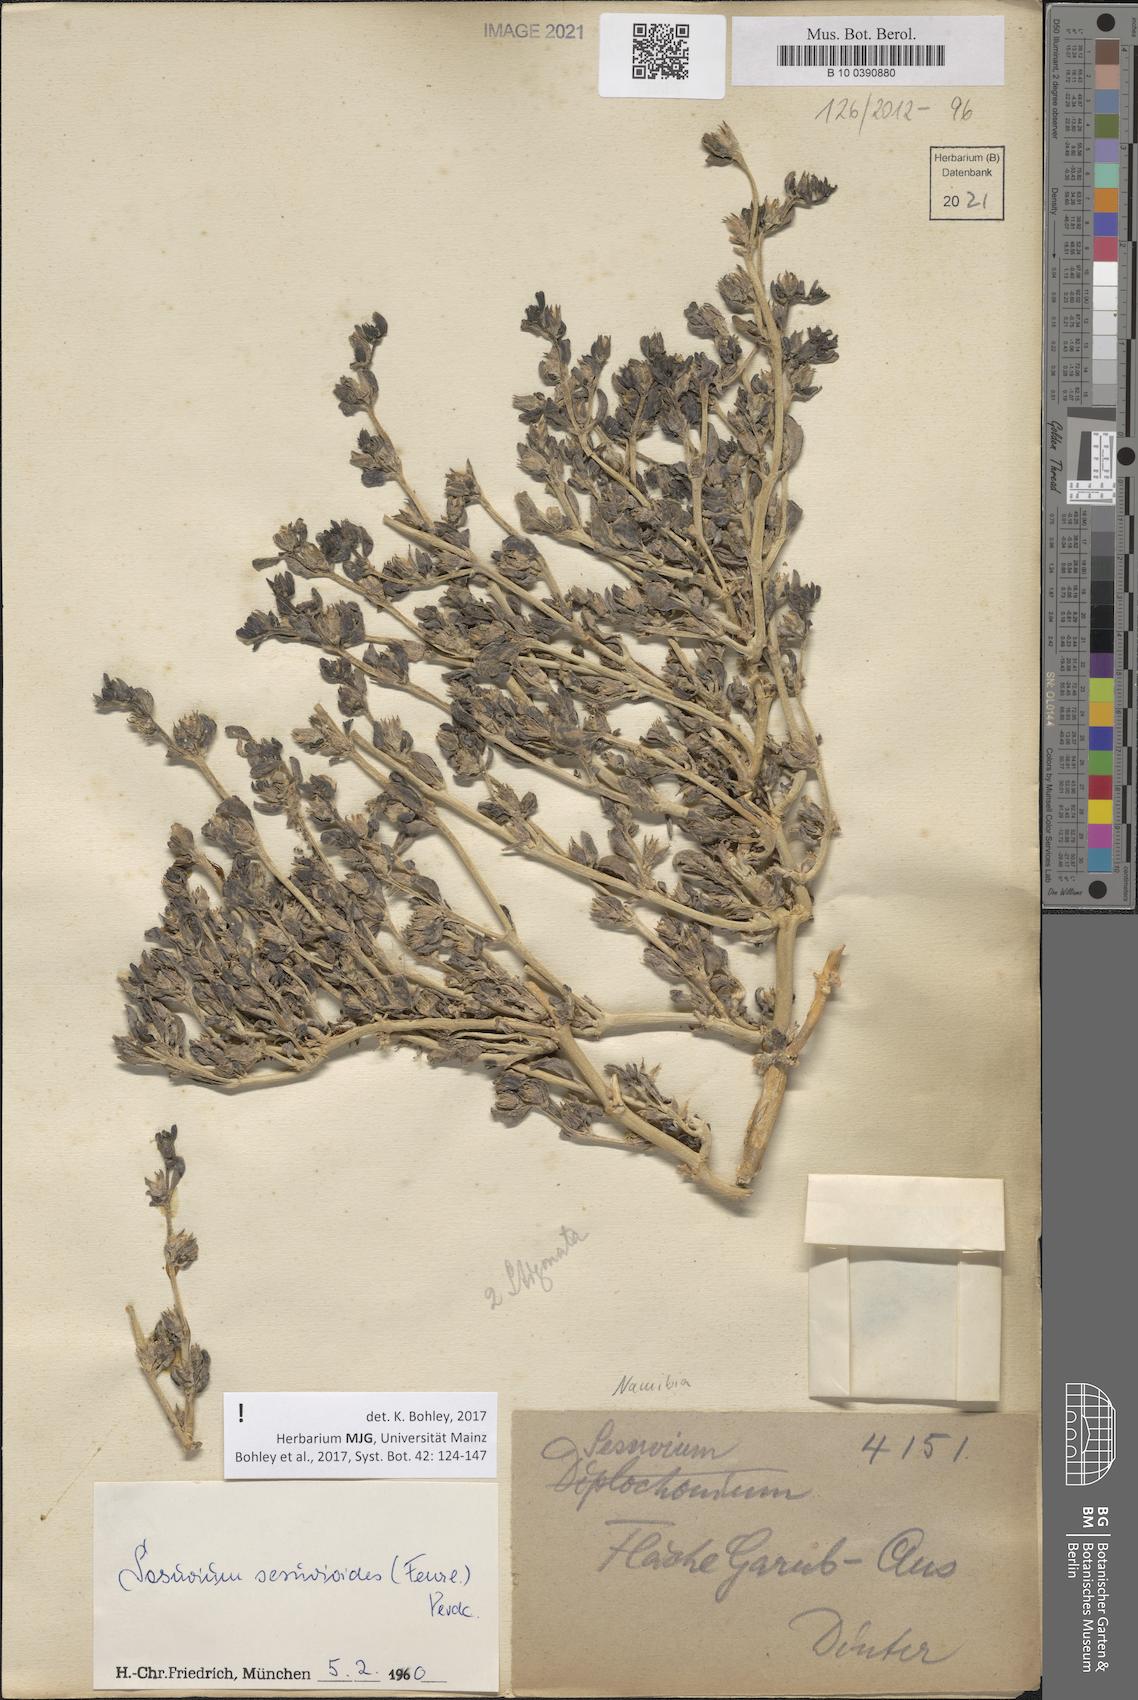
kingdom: Plantae
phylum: Tracheophyta
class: Magnoliopsida
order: Caryophyllales
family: Aizoaceae
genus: Sesuvium
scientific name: Sesuvium sesuvioides
